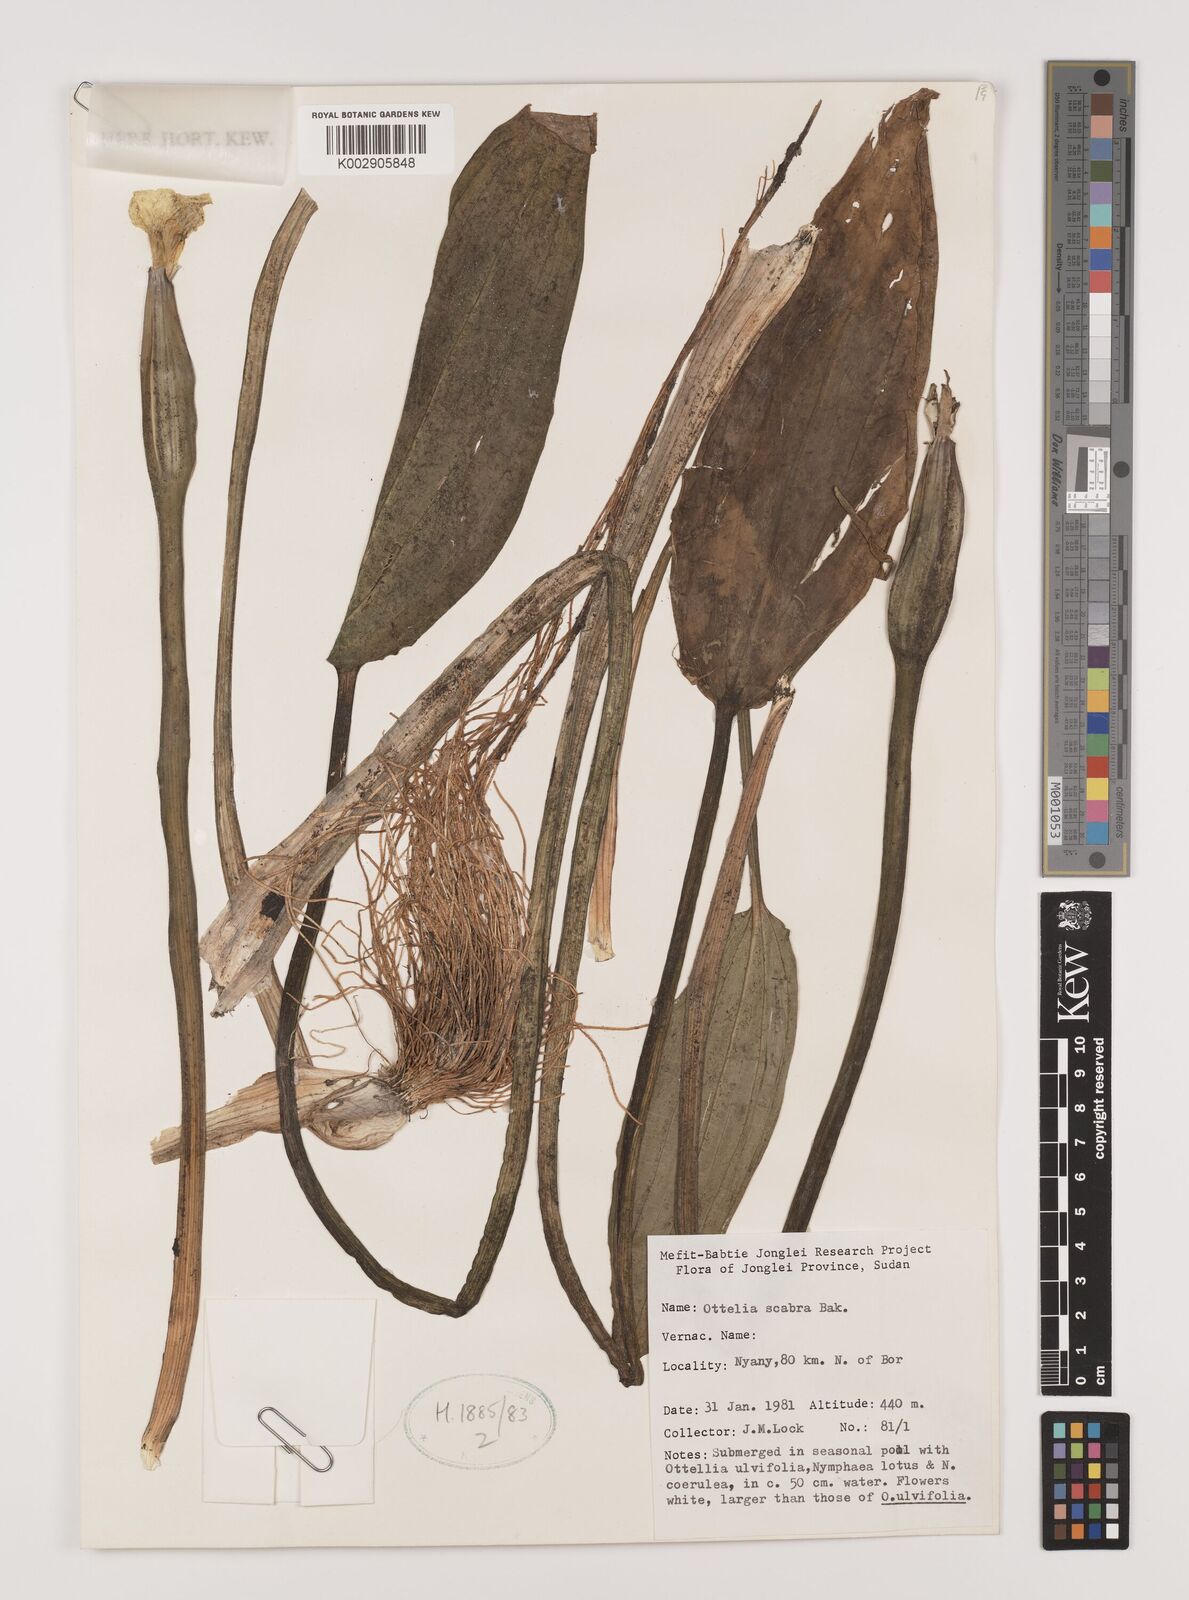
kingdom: Plantae
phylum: Tracheophyta
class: Liliopsida
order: Alismatales
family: Hydrocharitaceae
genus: Ottelia
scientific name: Ottelia scabra
